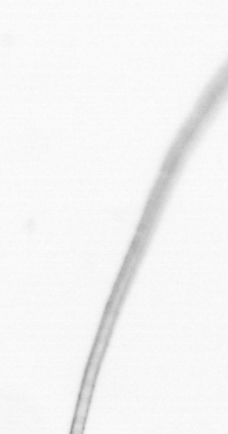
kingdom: Chromista
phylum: Ochrophyta
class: Bacillariophyceae
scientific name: Bacillariophyceae
